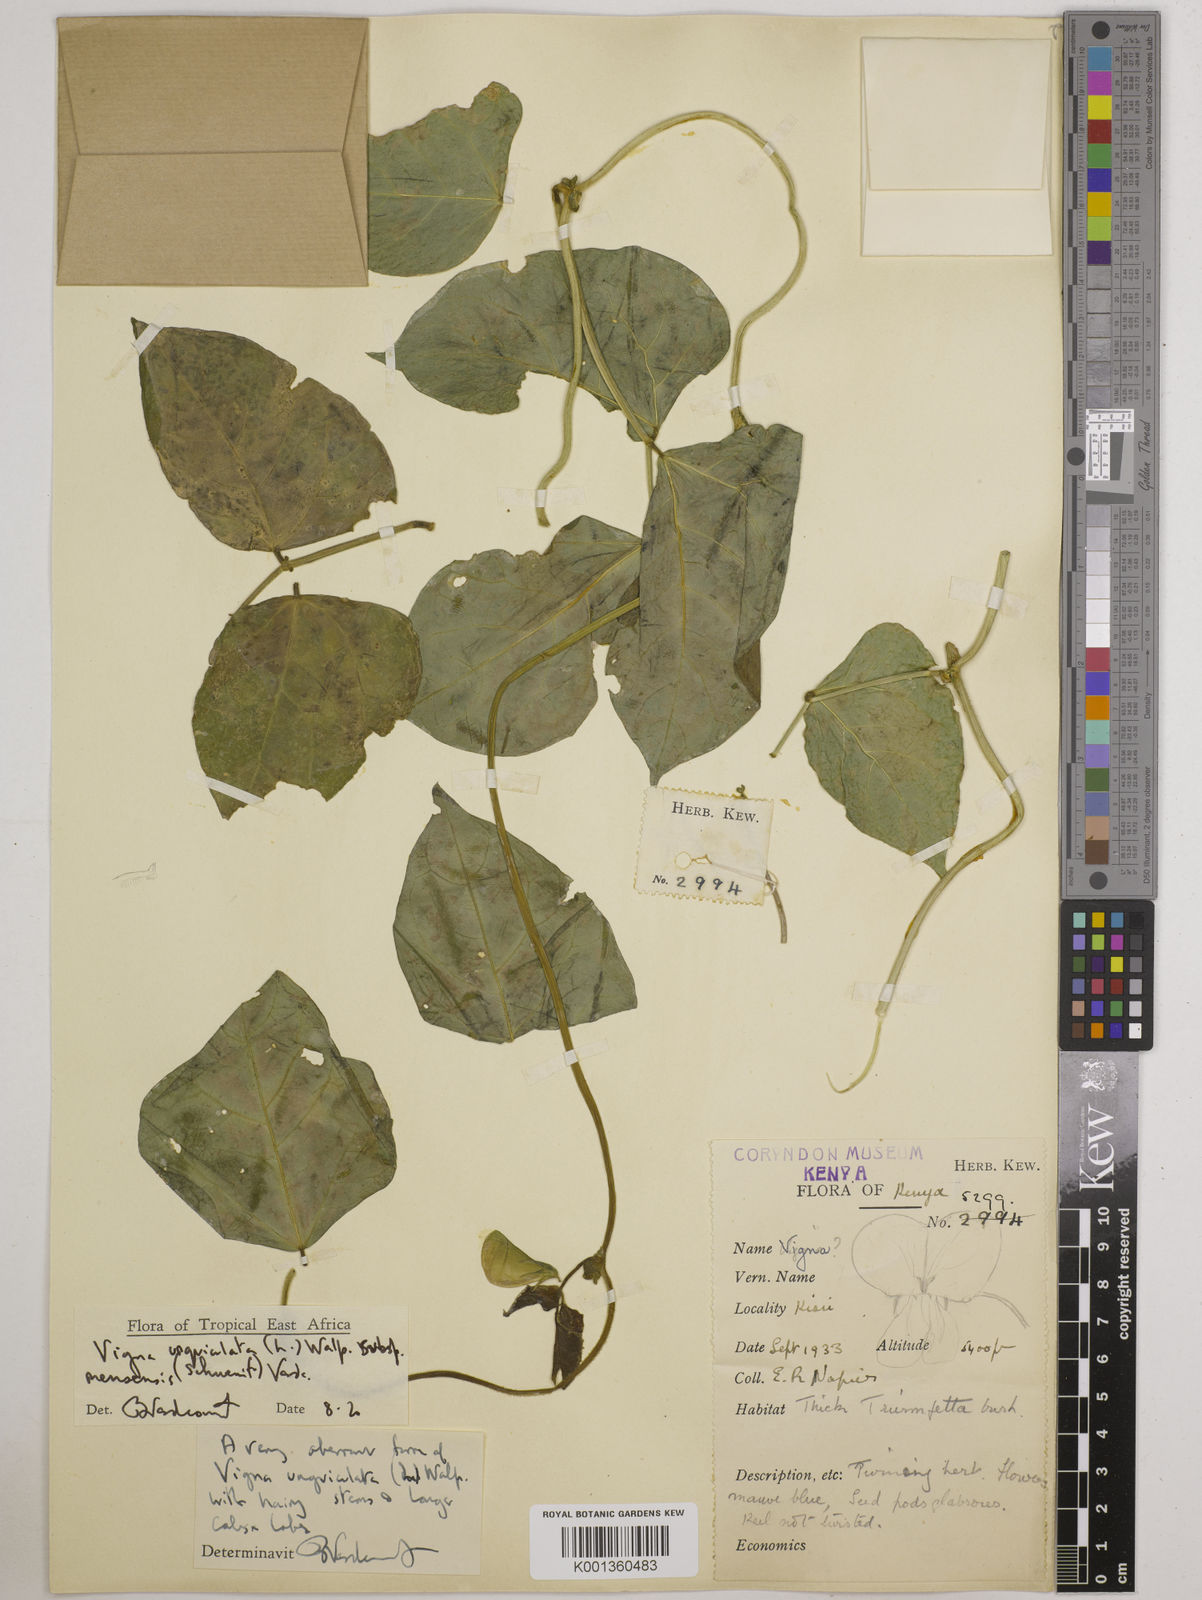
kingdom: Plantae
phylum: Tracheophyta
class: Magnoliopsida
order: Fabales
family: Fabaceae
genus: Vigna
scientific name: Vigna unguiculata
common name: Cowpea
